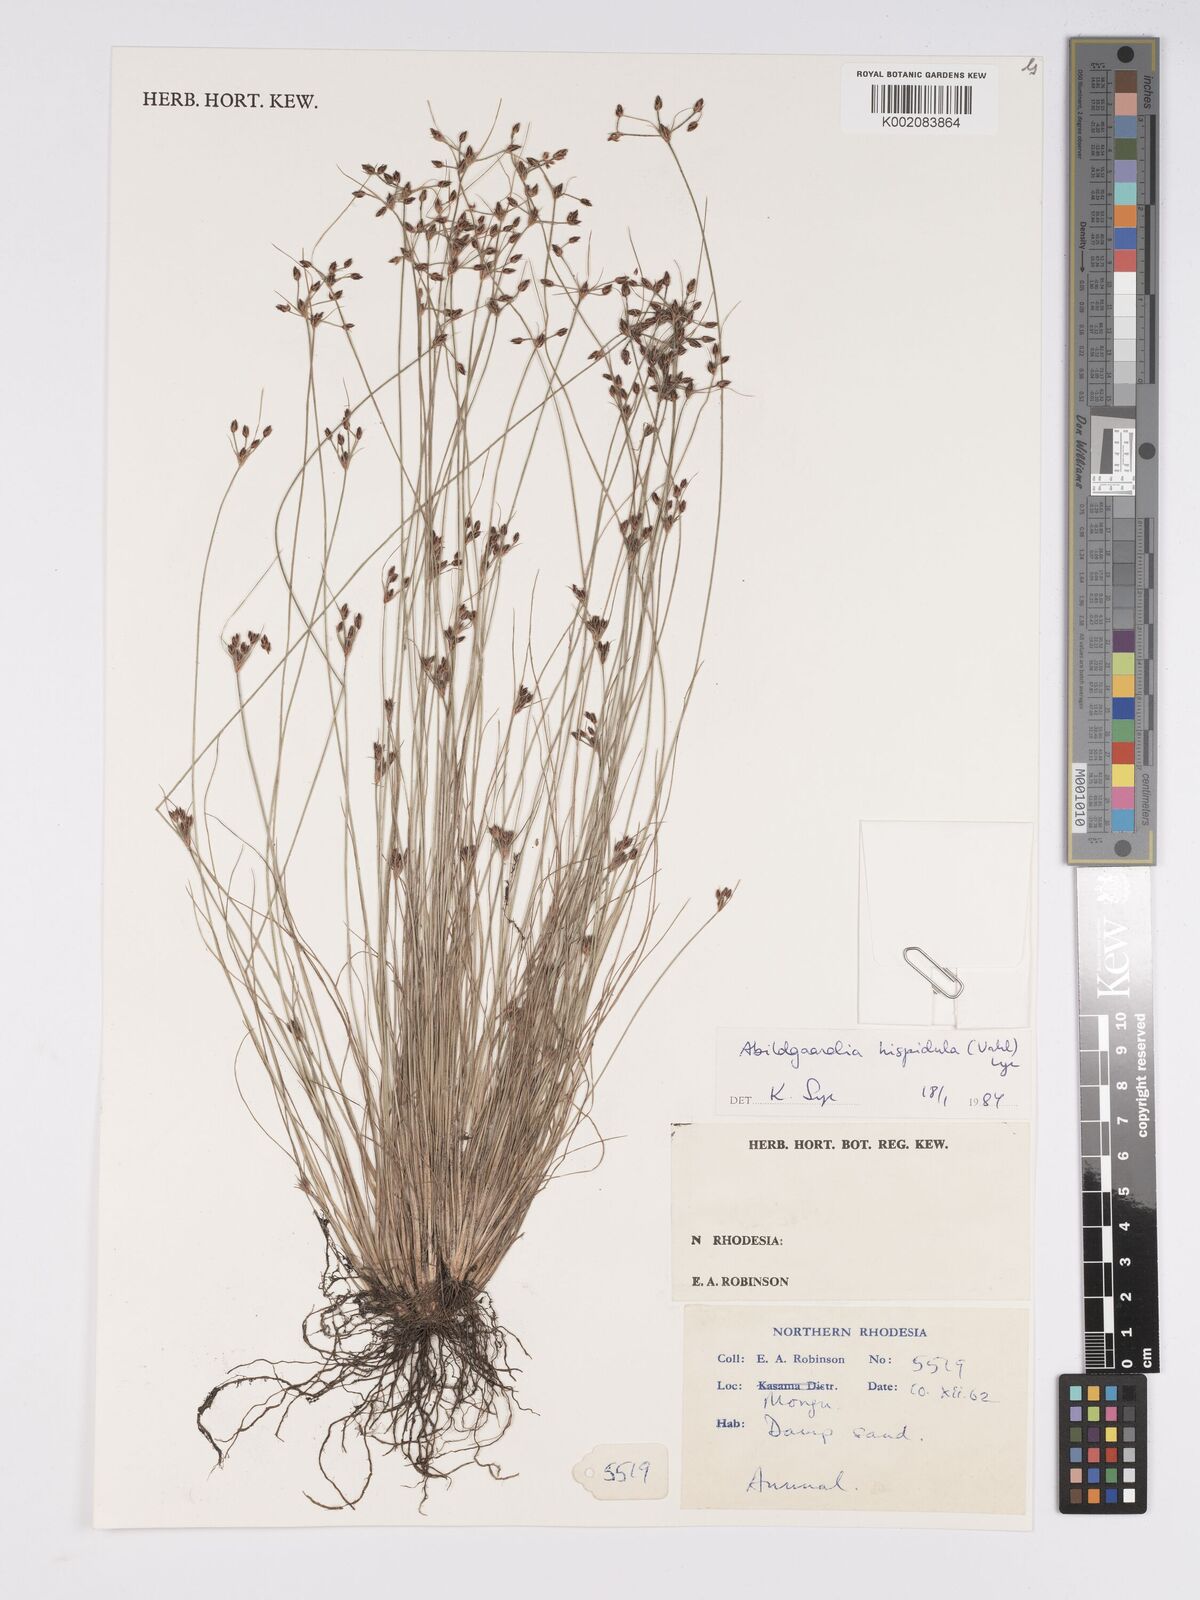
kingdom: Plantae
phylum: Tracheophyta
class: Liliopsida
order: Poales
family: Cyperaceae
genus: Bulbostylis
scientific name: Bulbostylis hispidula
